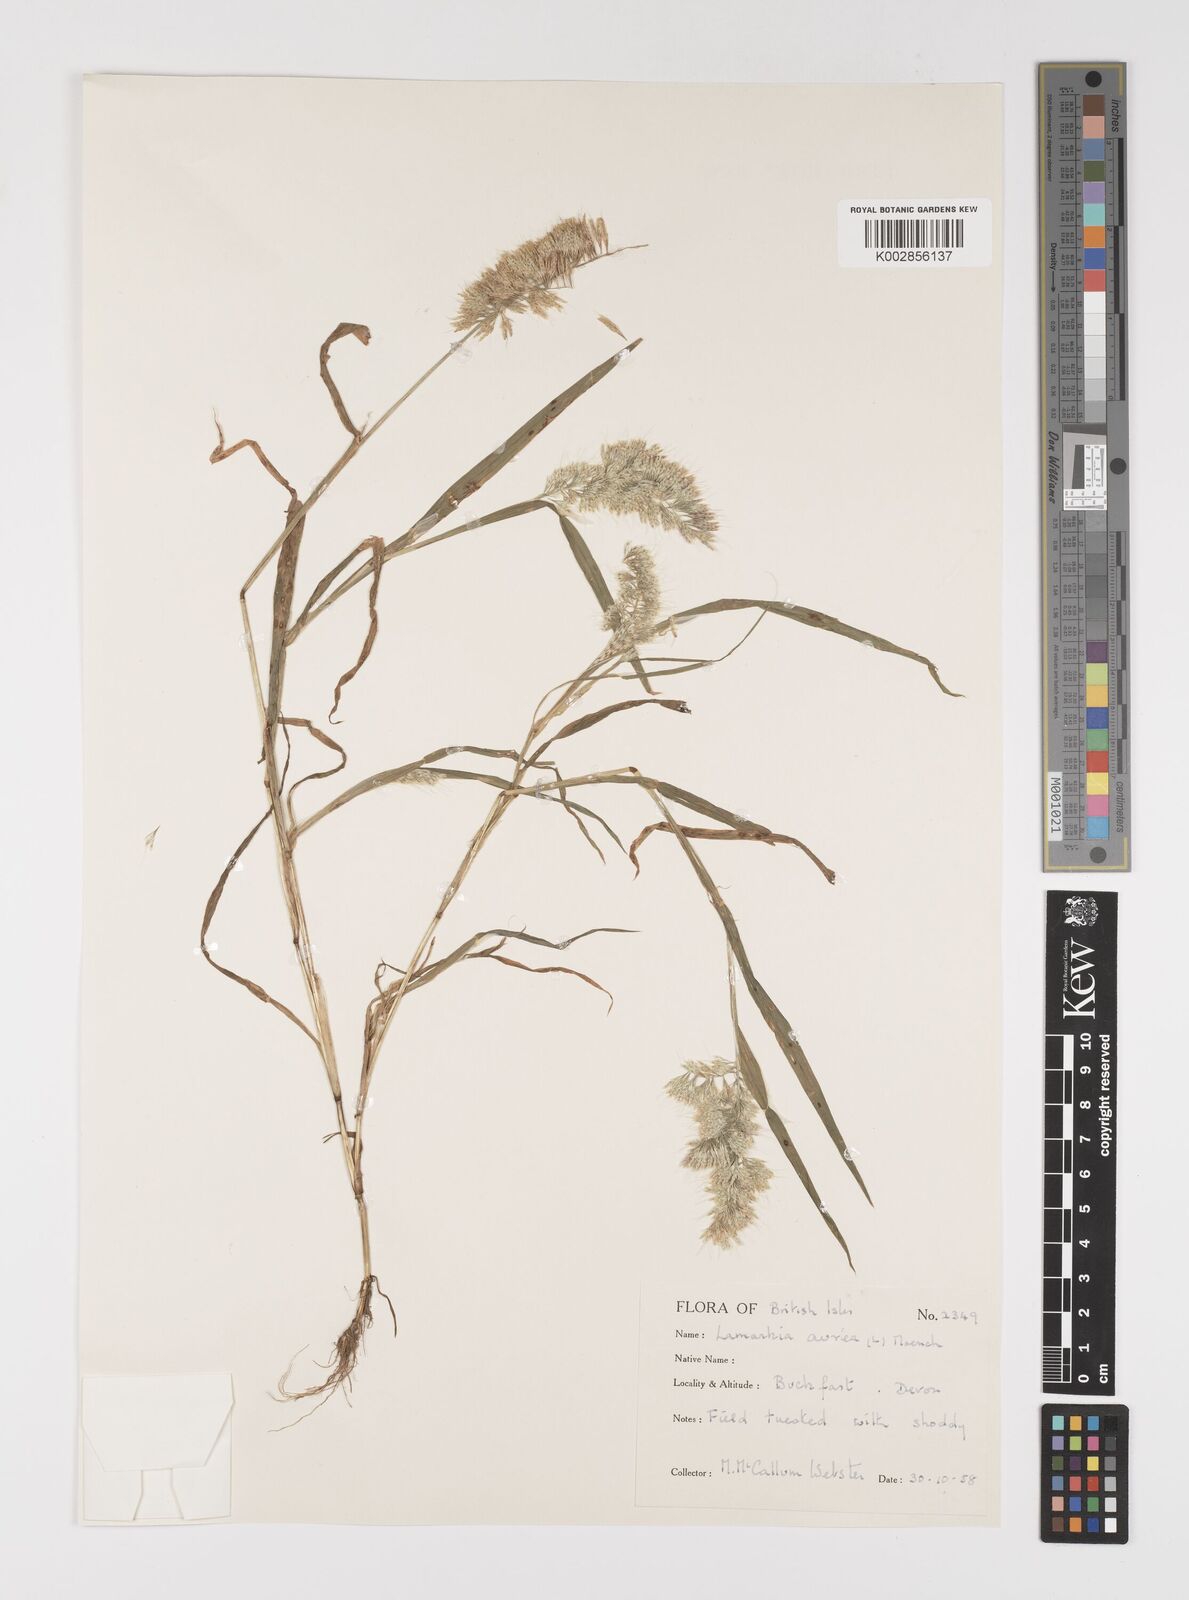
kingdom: Plantae
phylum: Tracheophyta
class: Liliopsida
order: Poales
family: Poaceae
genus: Lamarckia
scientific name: Lamarckia aurea
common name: Golden dog's-tail
